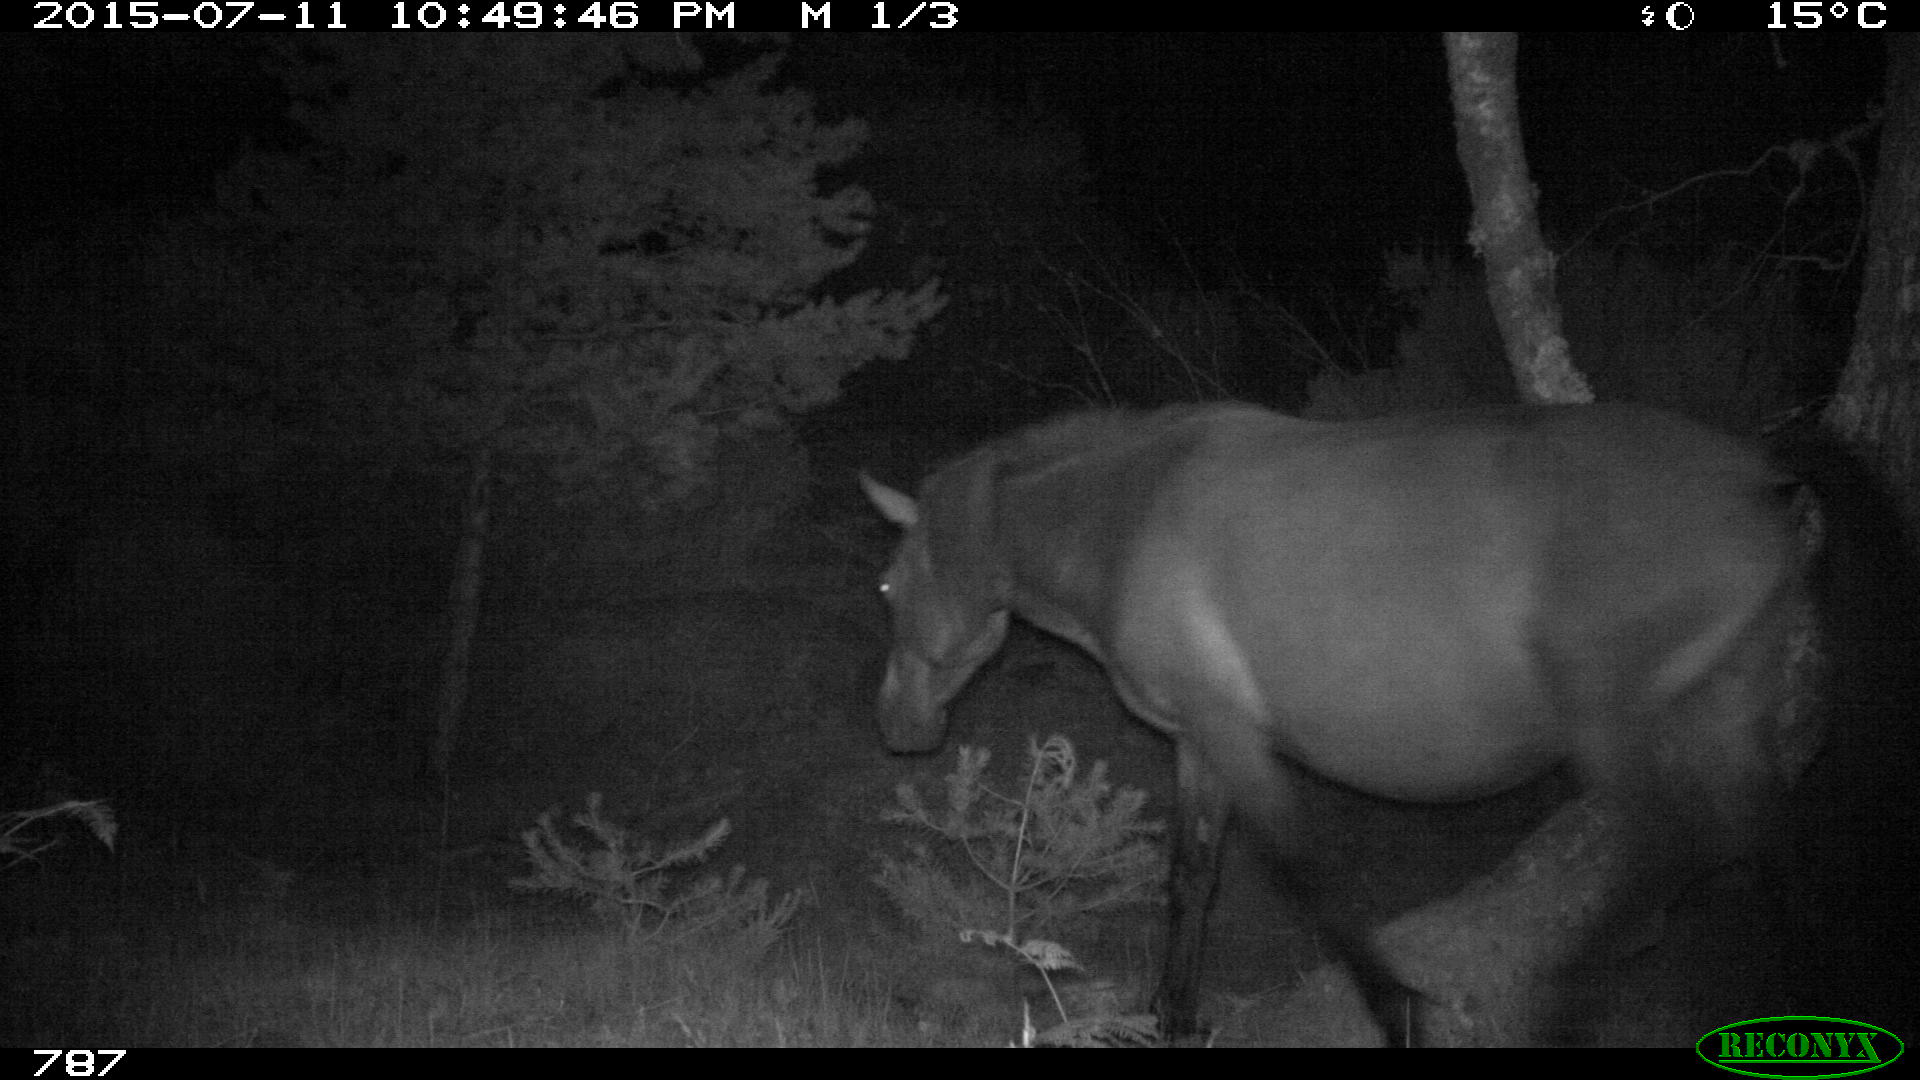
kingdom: Animalia
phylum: Chordata
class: Mammalia
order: Perissodactyla
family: Equidae
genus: Equus
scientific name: Equus caballus
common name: Horse
